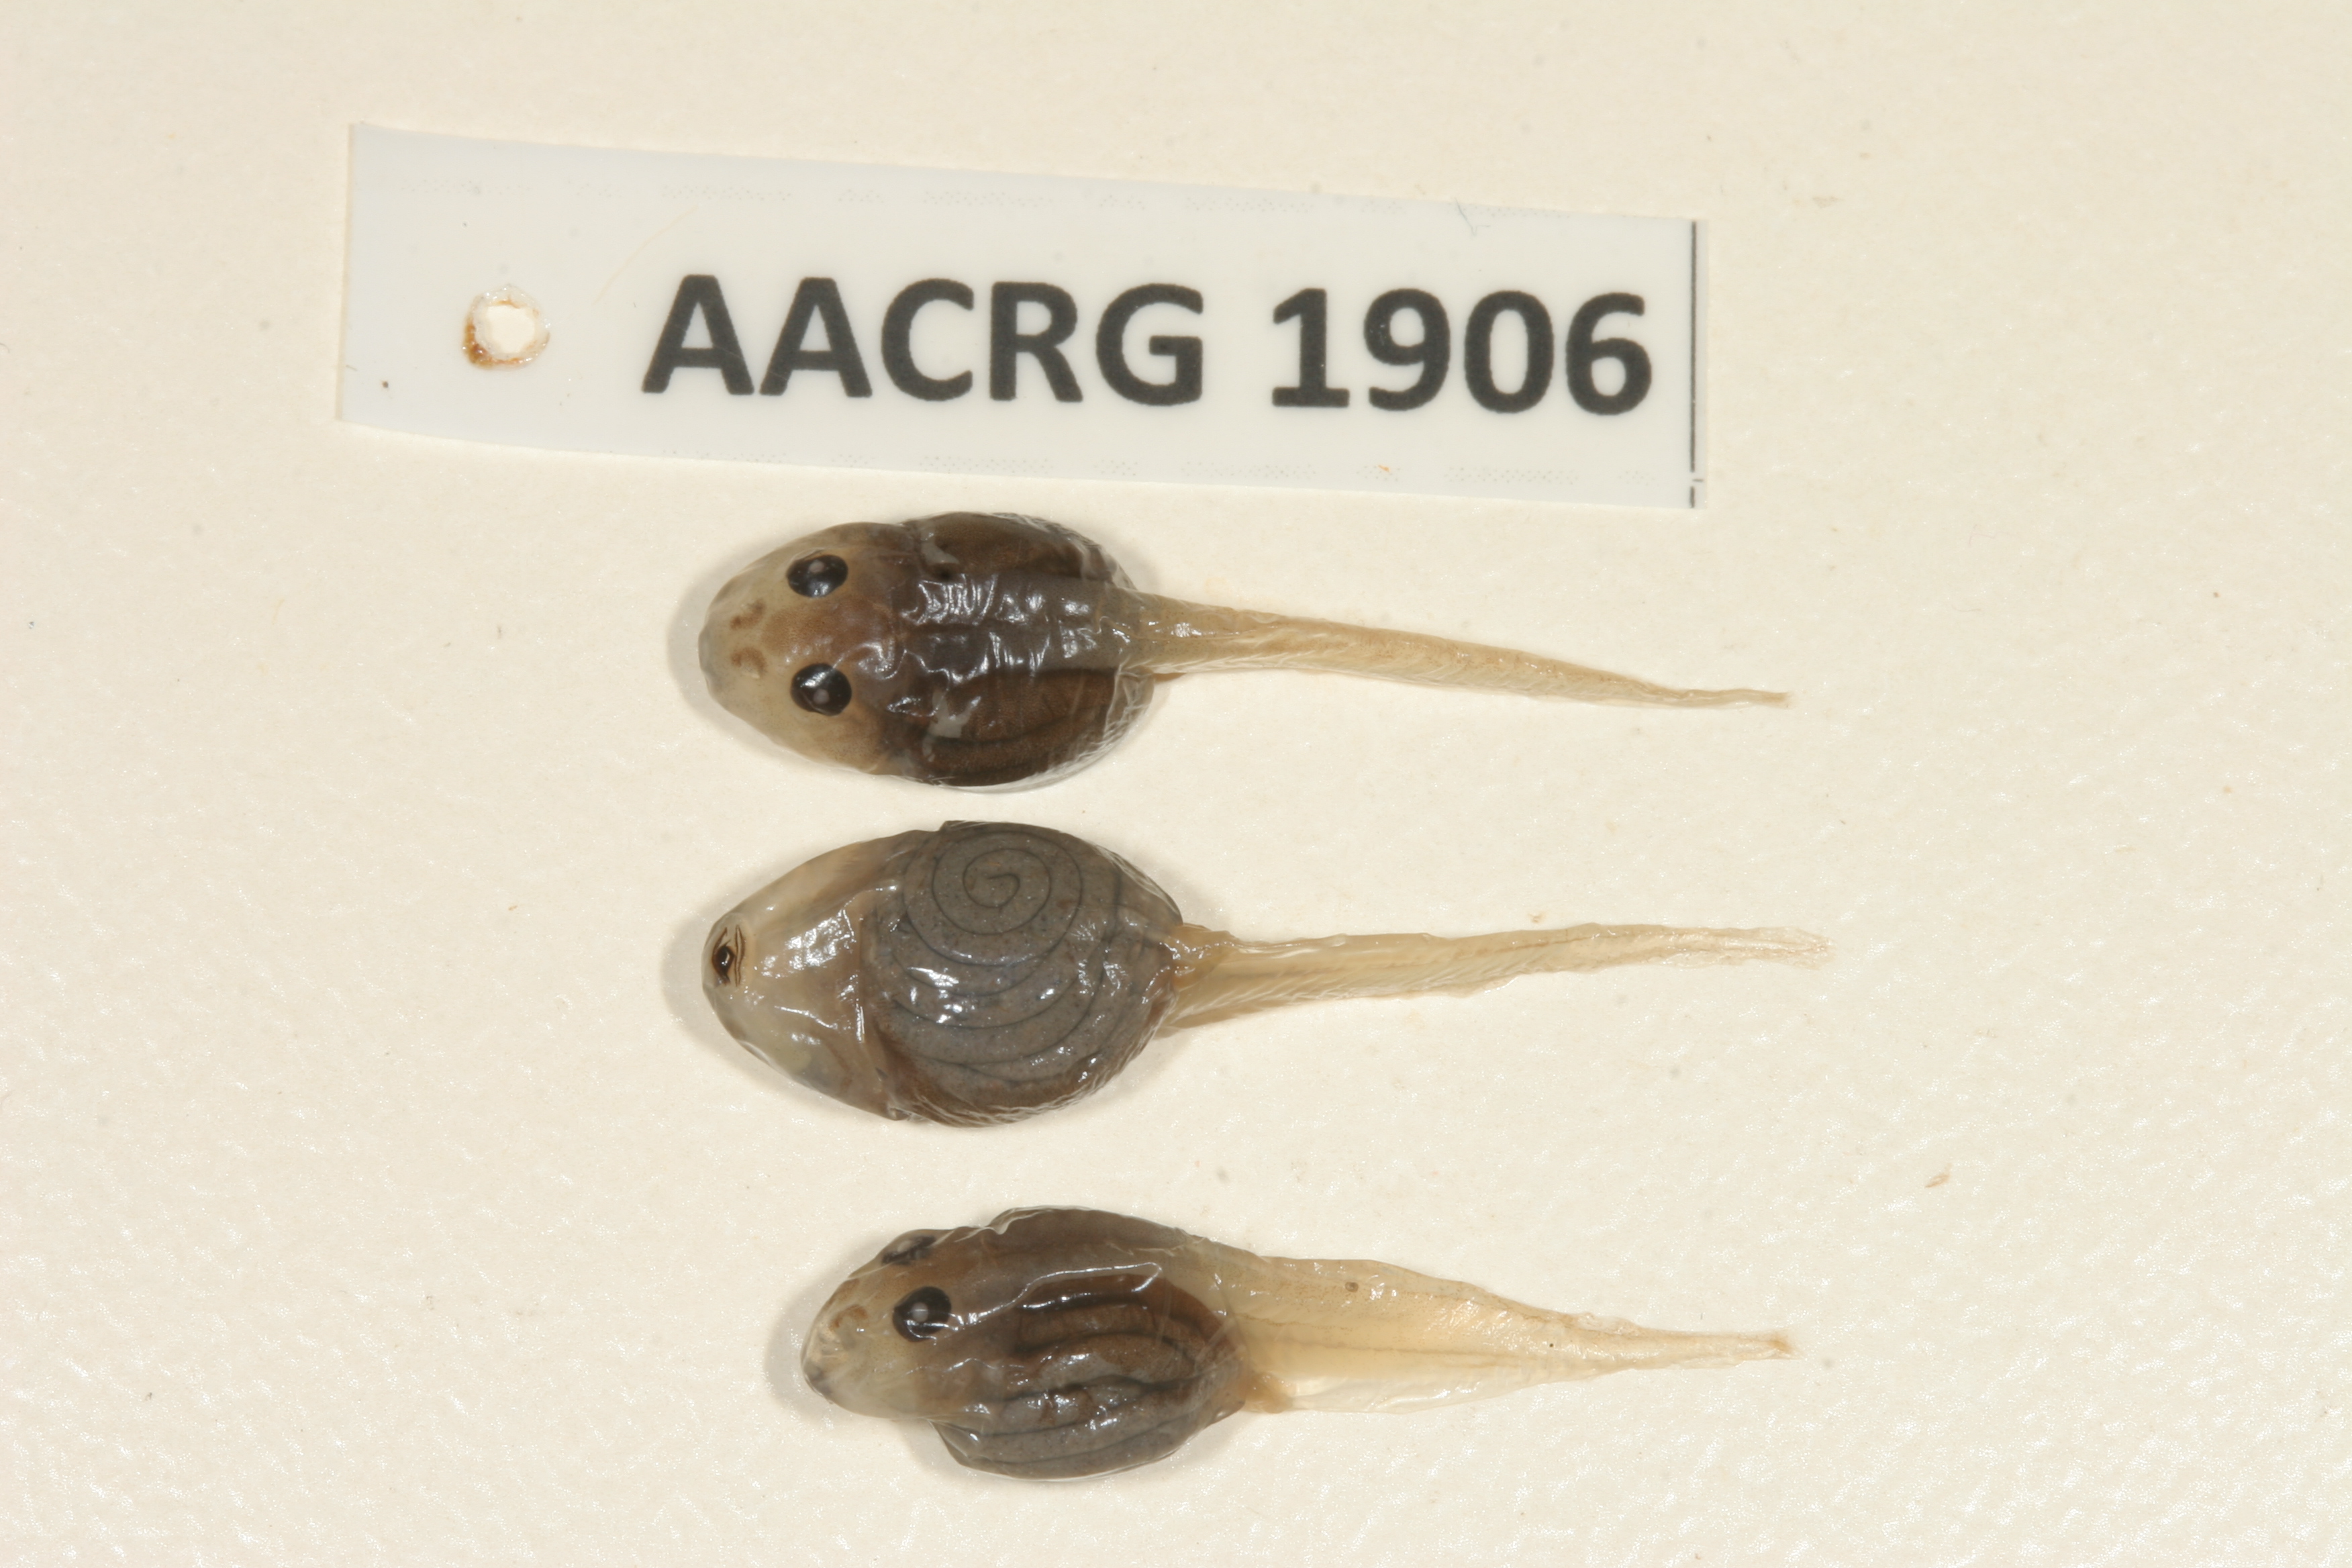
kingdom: Animalia
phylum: Chordata
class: Amphibia
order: Anura
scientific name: Anura
